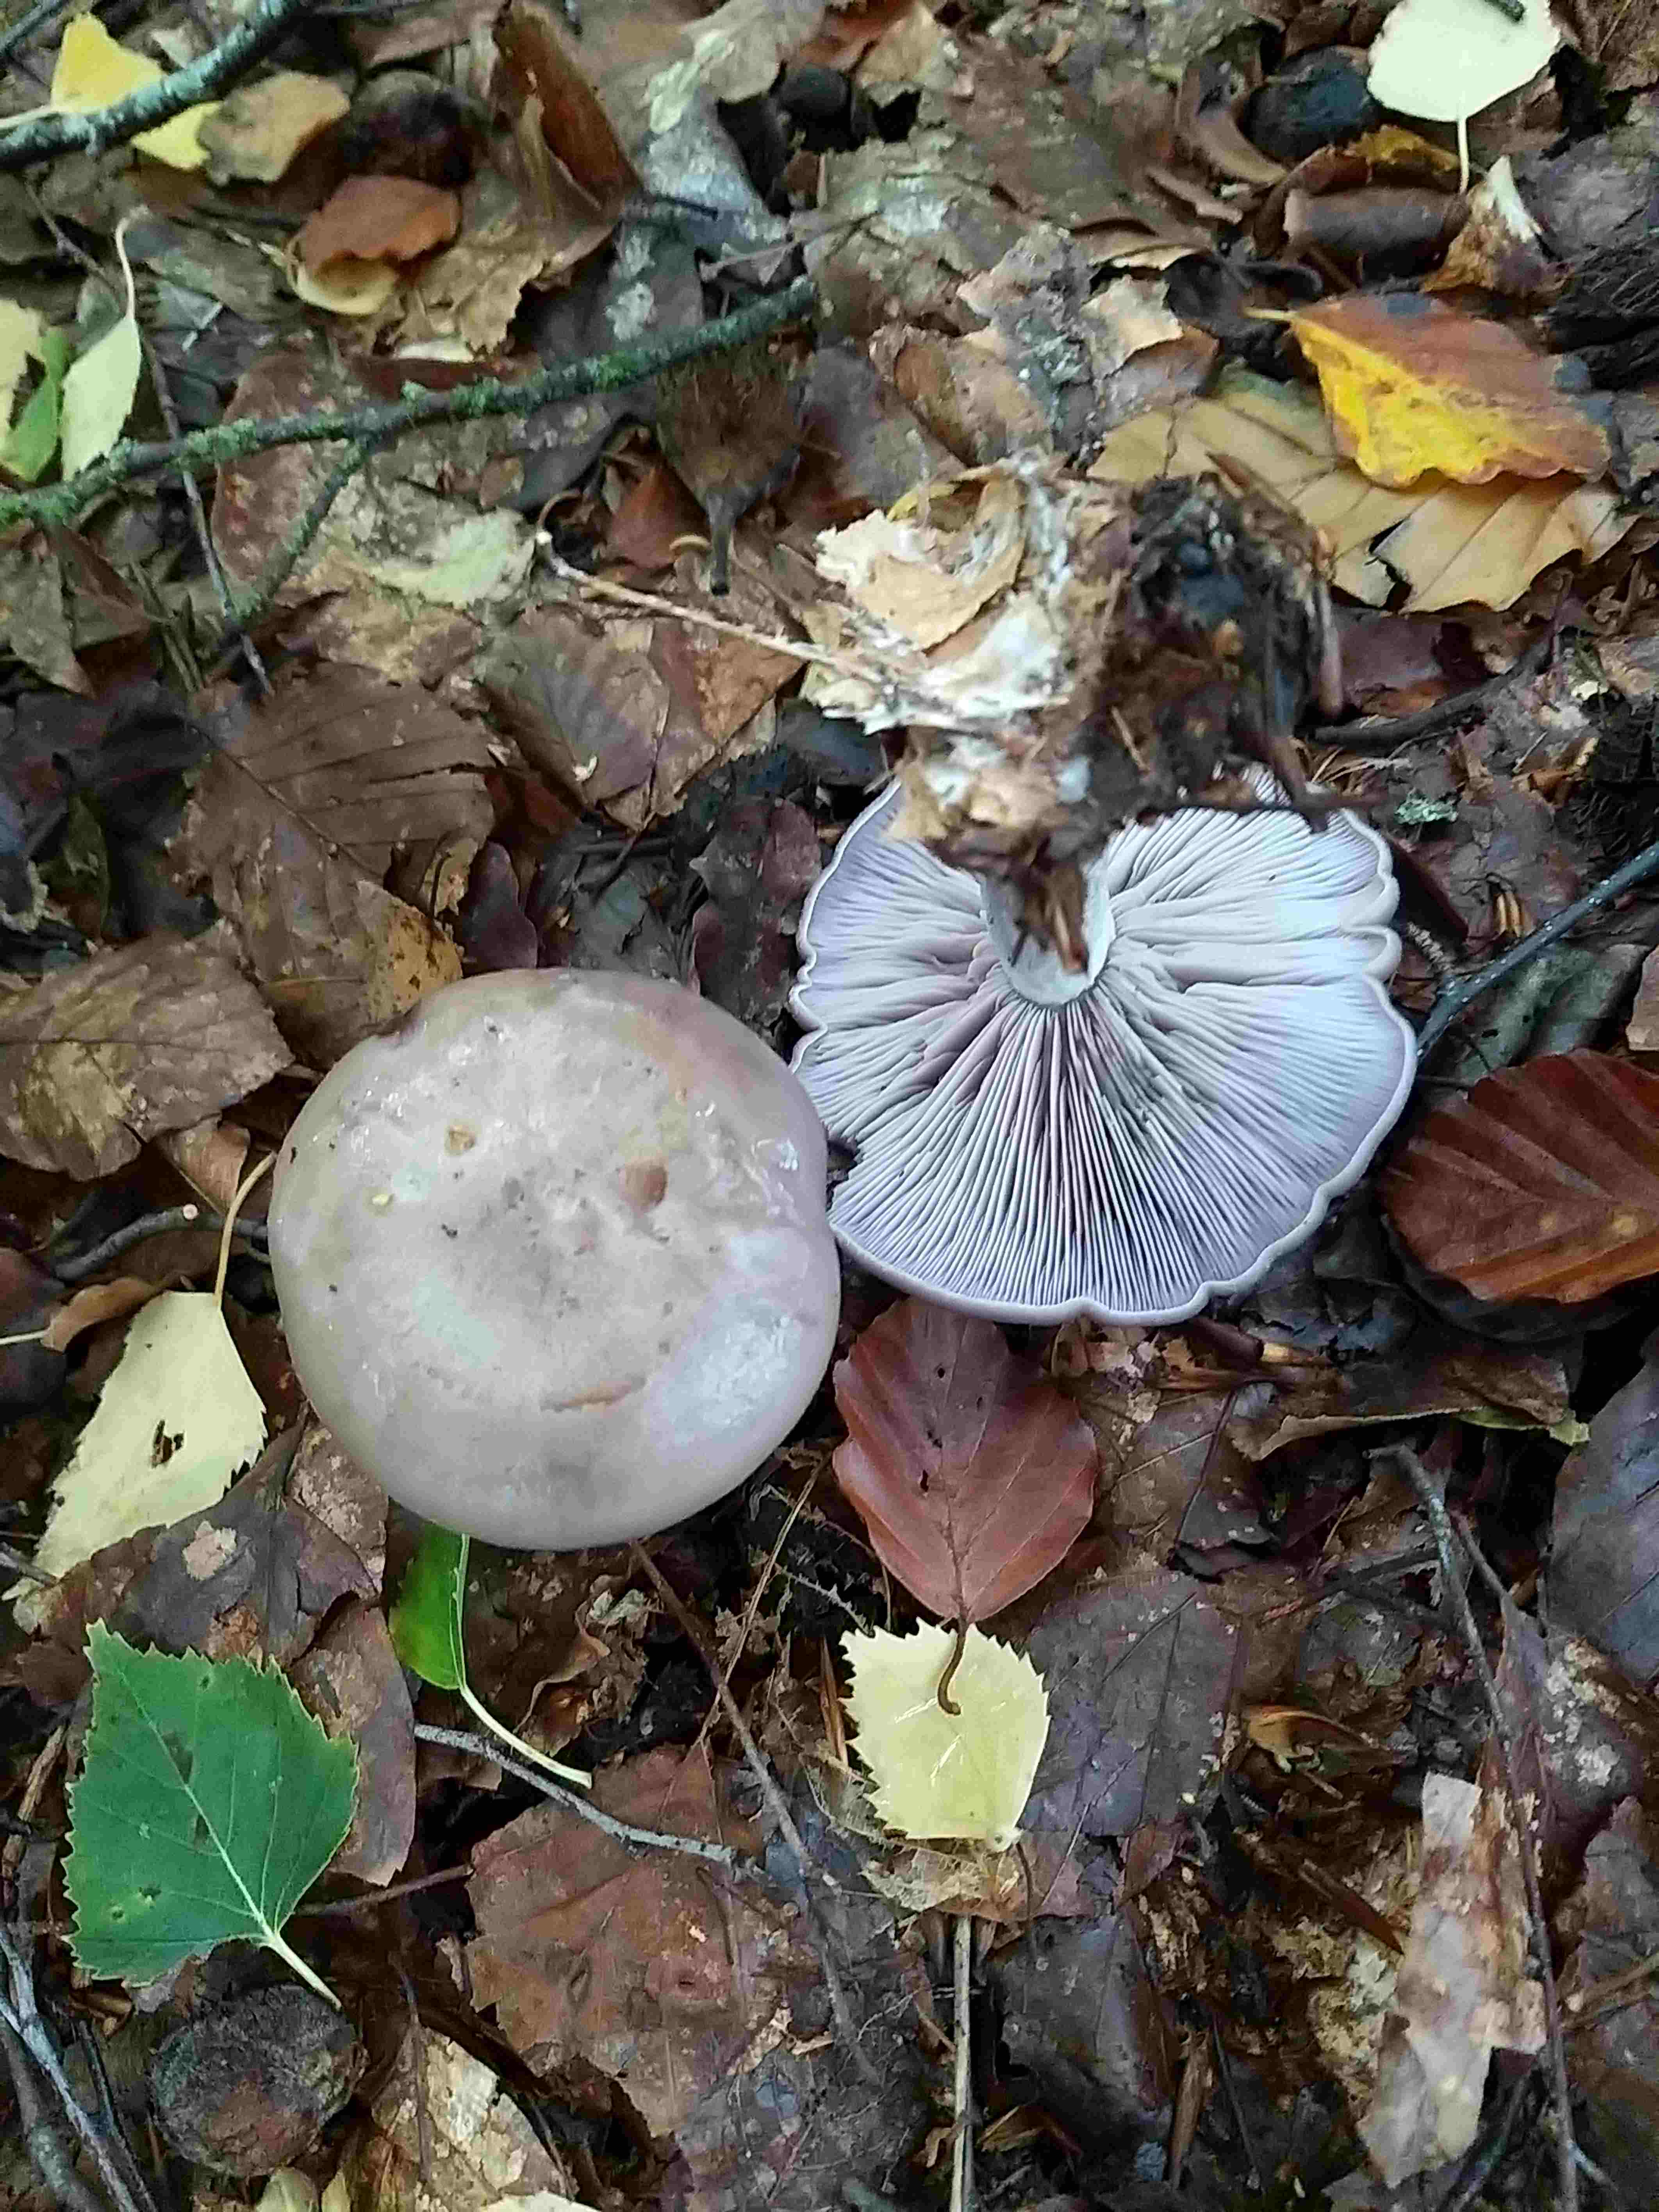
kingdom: Fungi
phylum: Basidiomycota
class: Agaricomycetes
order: Agaricales
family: Tricholomataceae
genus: Lepista
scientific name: Lepista nuda
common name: violet hekseringshat
